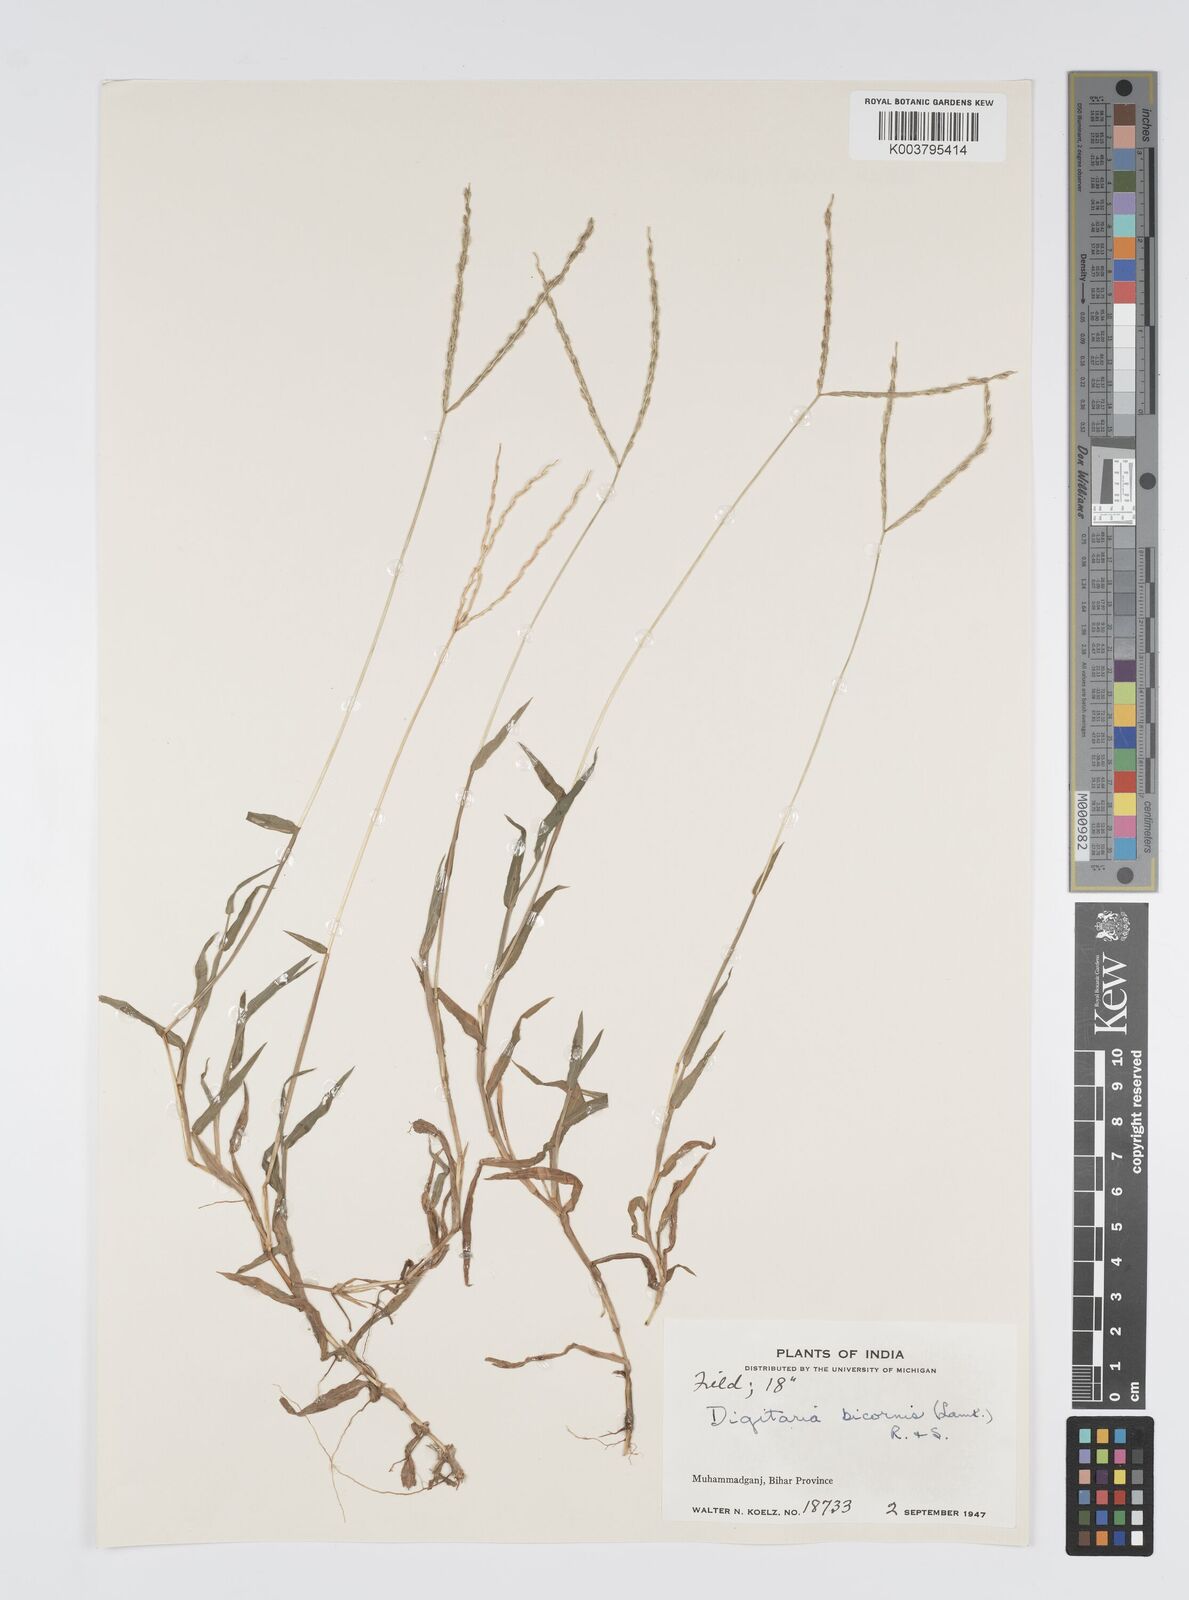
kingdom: Plantae
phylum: Tracheophyta
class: Liliopsida
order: Poales
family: Poaceae
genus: Digitaria
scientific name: Digitaria ciliaris
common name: Tropical finger-grass
